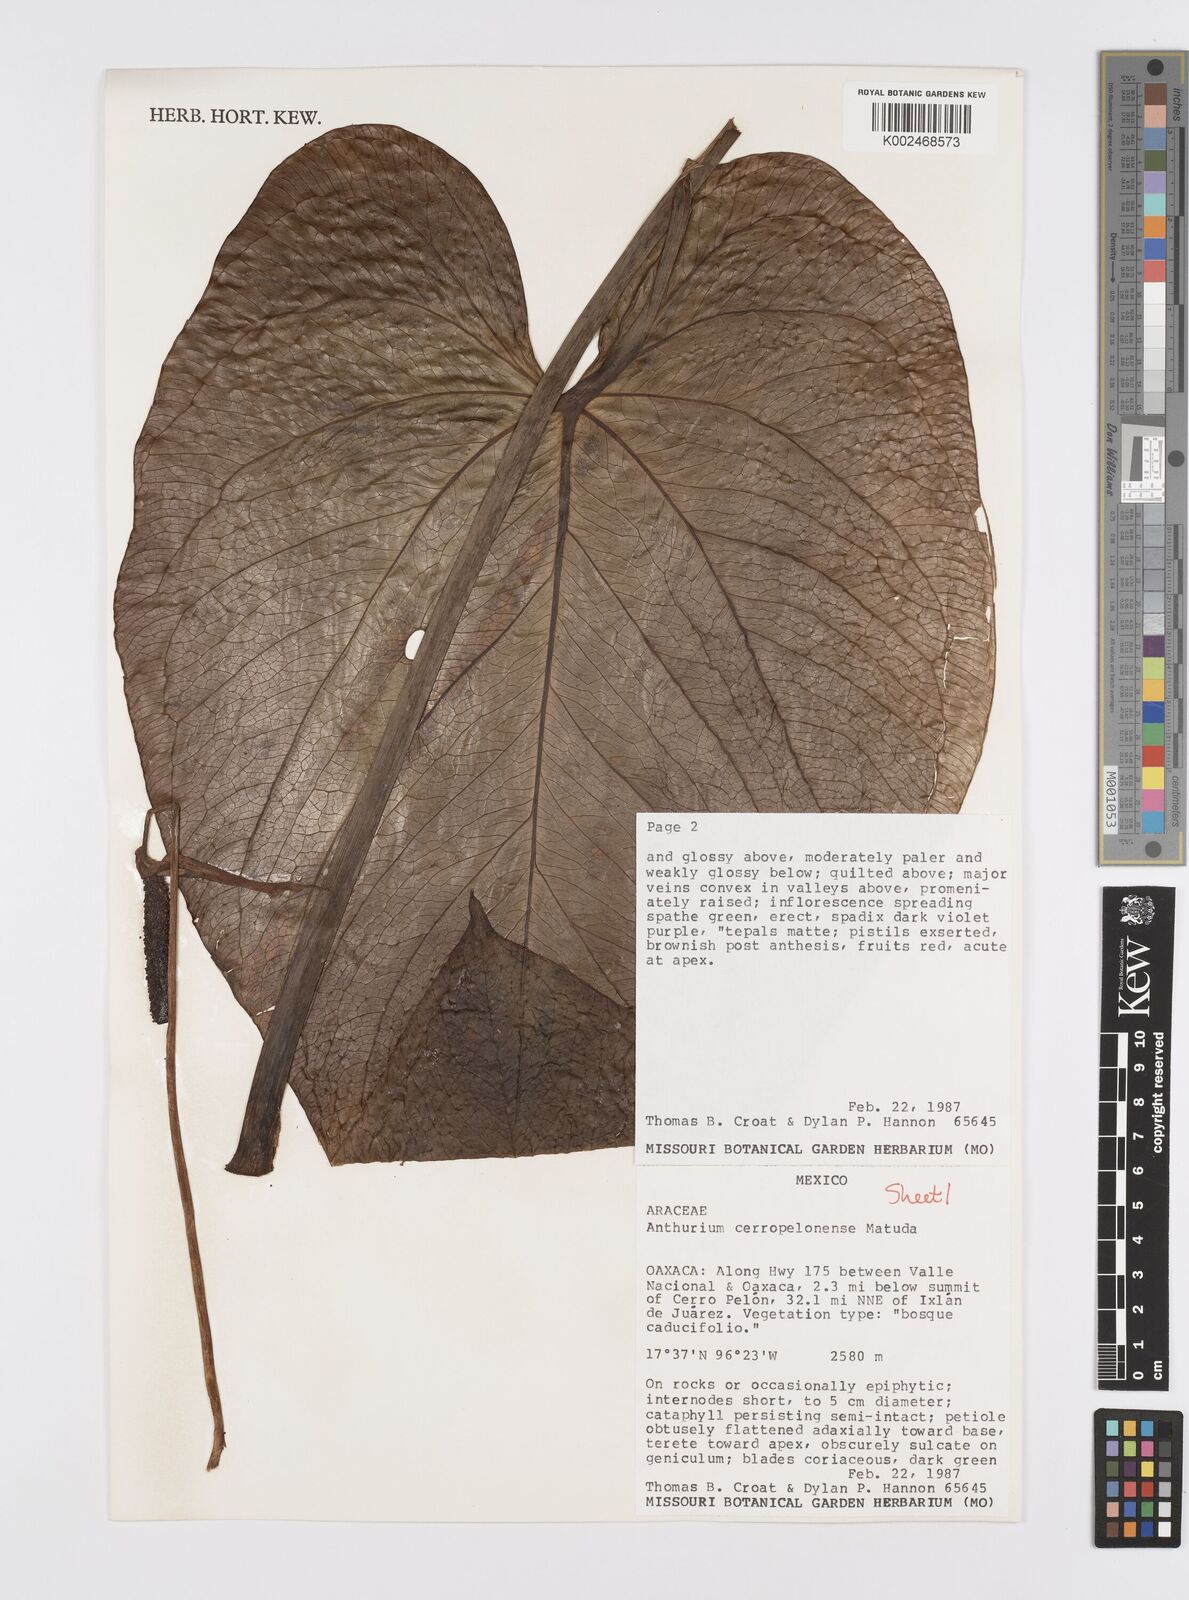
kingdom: Plantae
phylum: Tracheophyta
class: Liliopsida
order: Alismatales
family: Araceae
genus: Anthurium
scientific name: Anthurium cerropelonense
